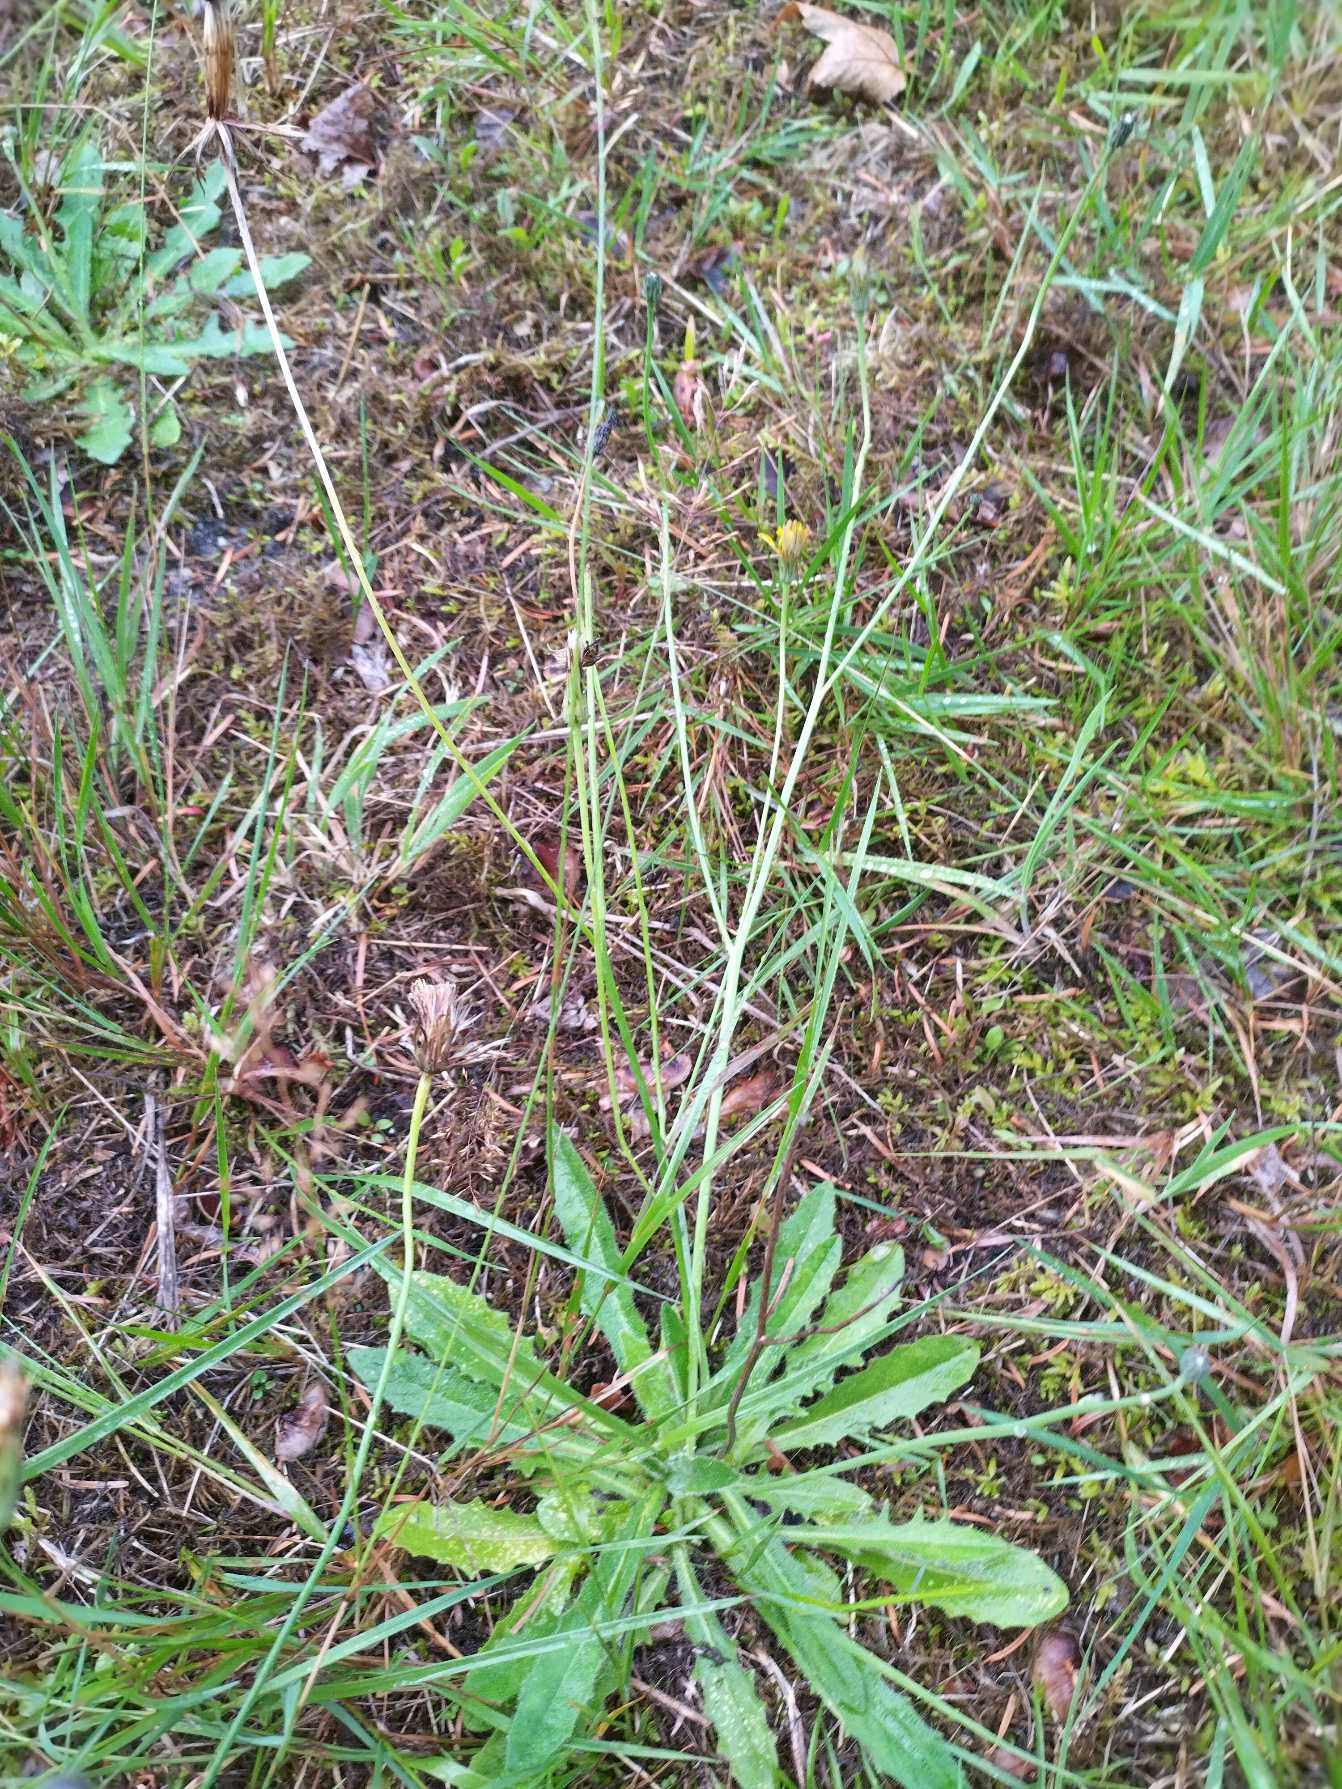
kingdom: Plantae
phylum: Tracheophyta
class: Magnoliopsida
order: Asterales
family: Asteraceae
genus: Hypochaeris
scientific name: Hypochaeris radicata
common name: Almindelig kongepen
